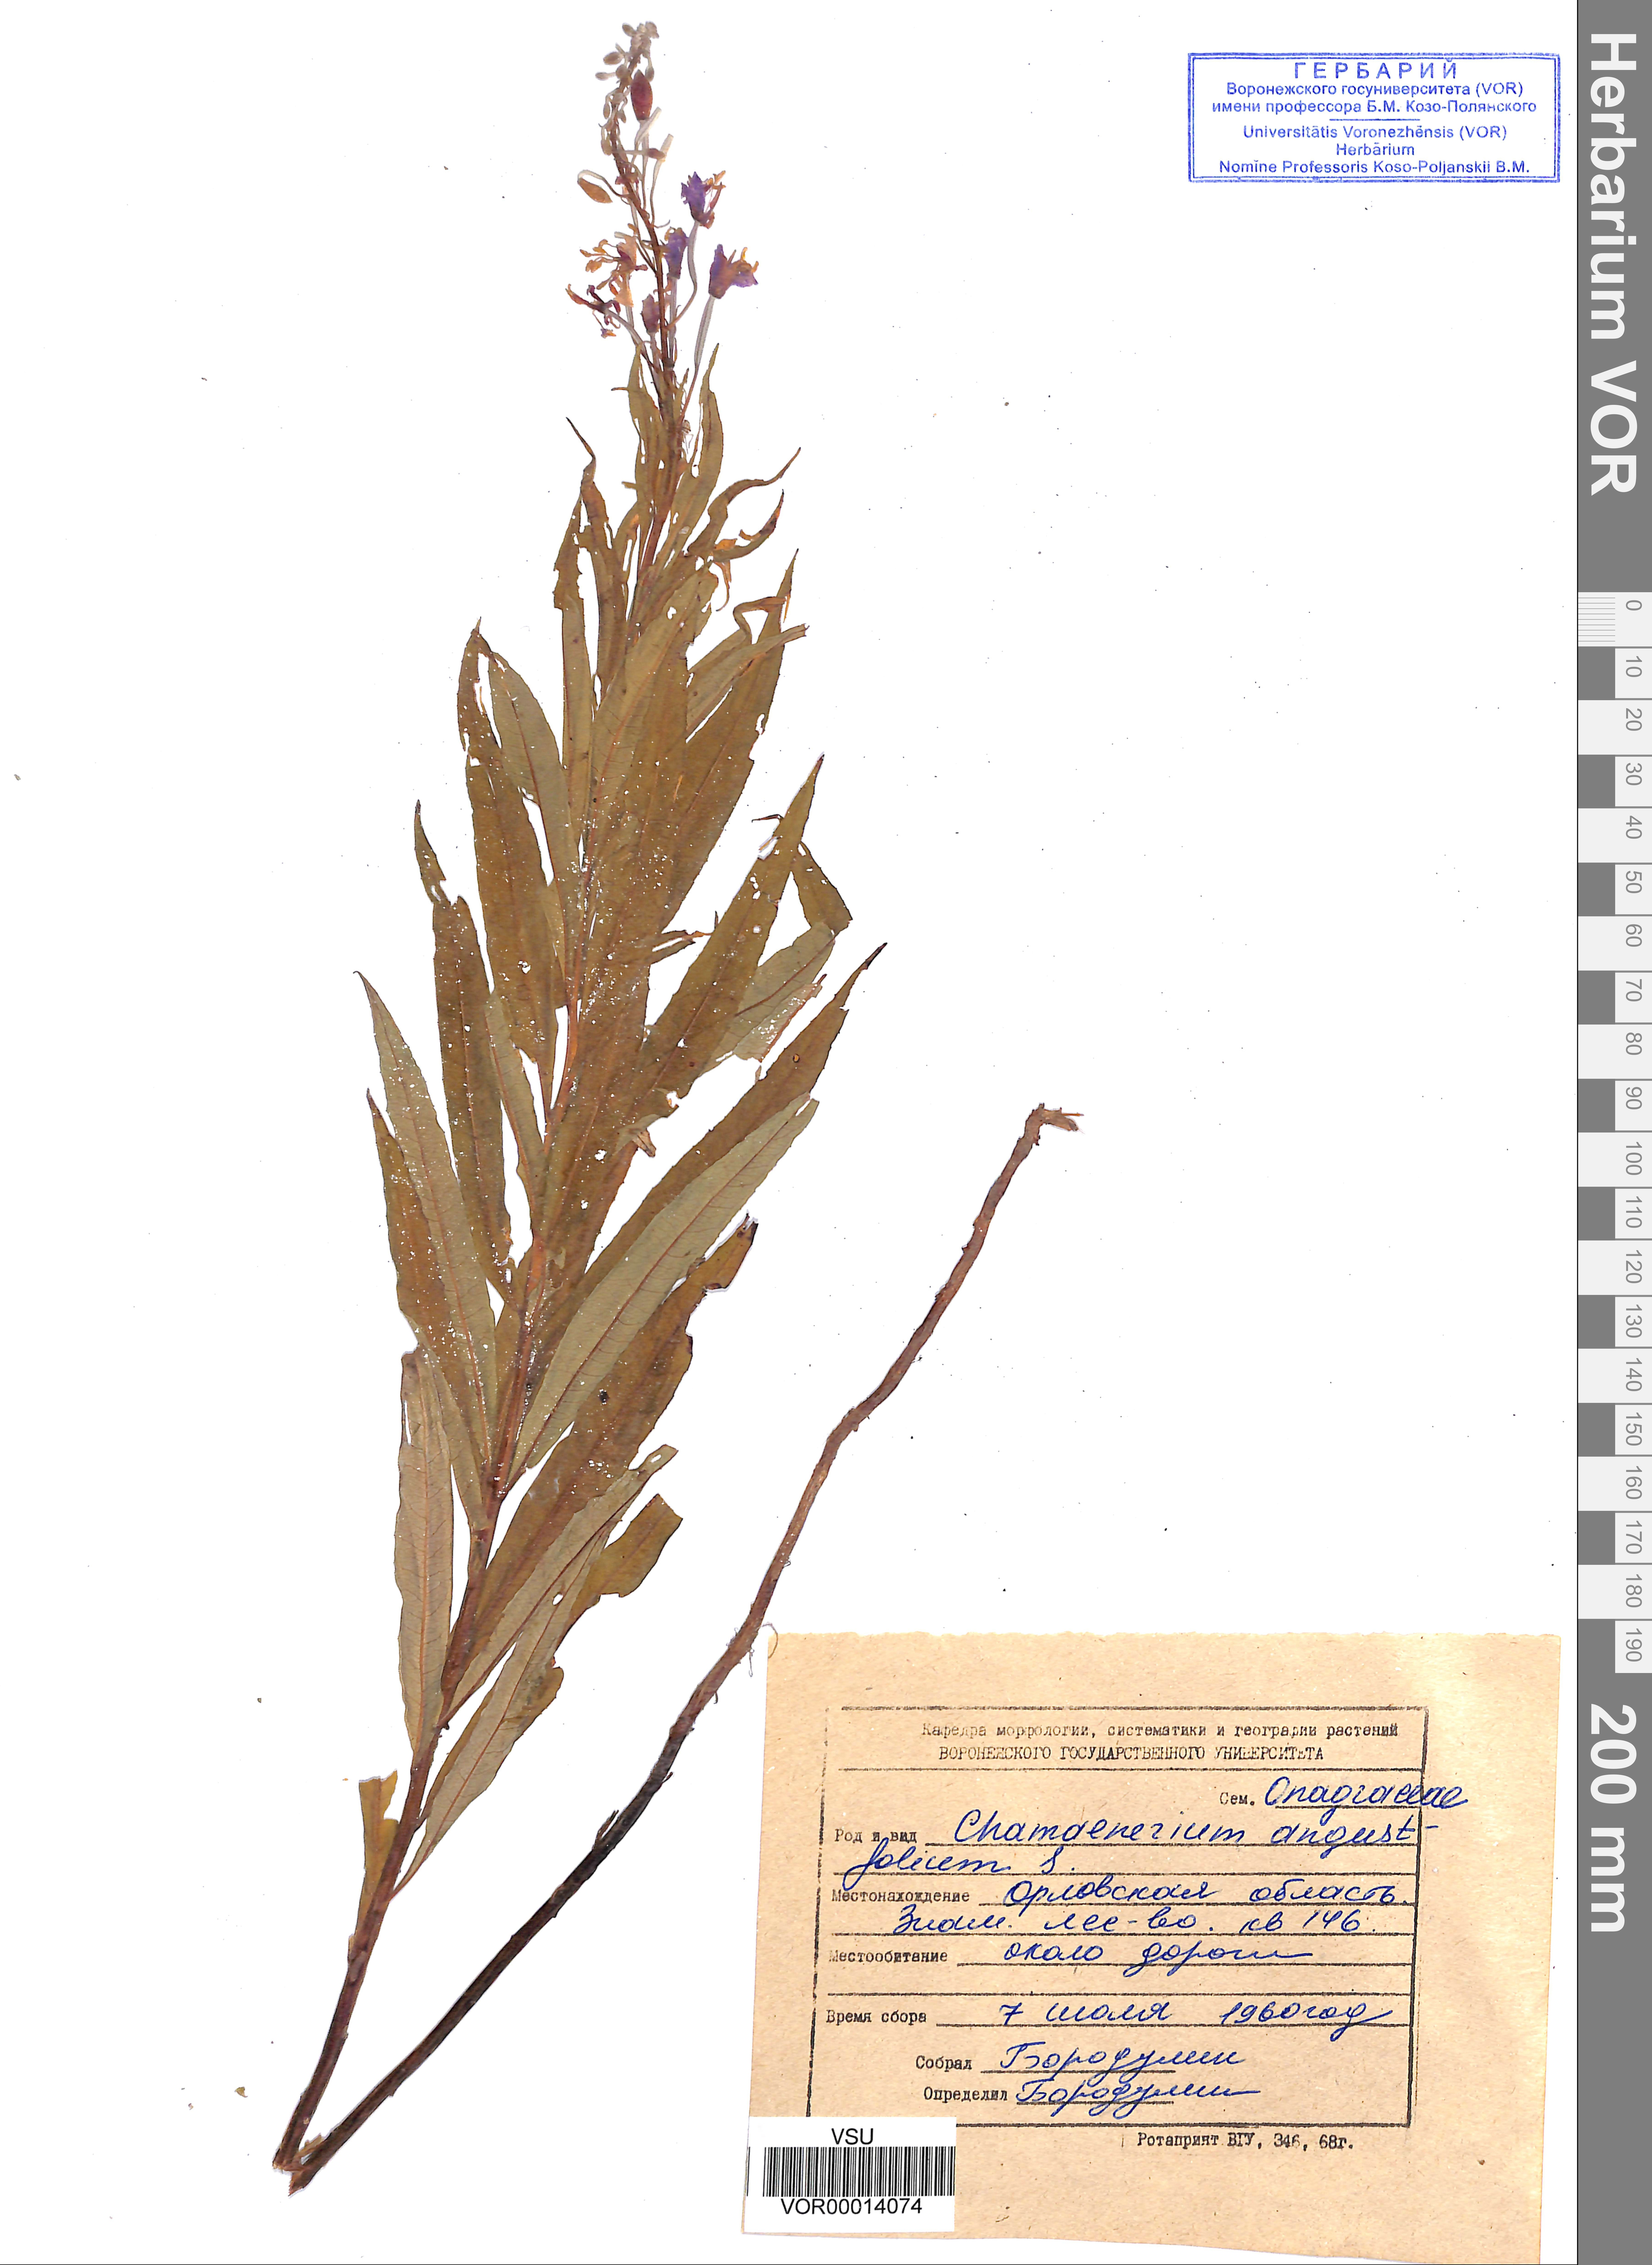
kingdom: Plantae
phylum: Tracheophyta
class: Magnoliopsida
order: Myrtales
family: Onagraceae
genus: Chamaenerion
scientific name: Chamaenerion angustifolium
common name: Fireweed
